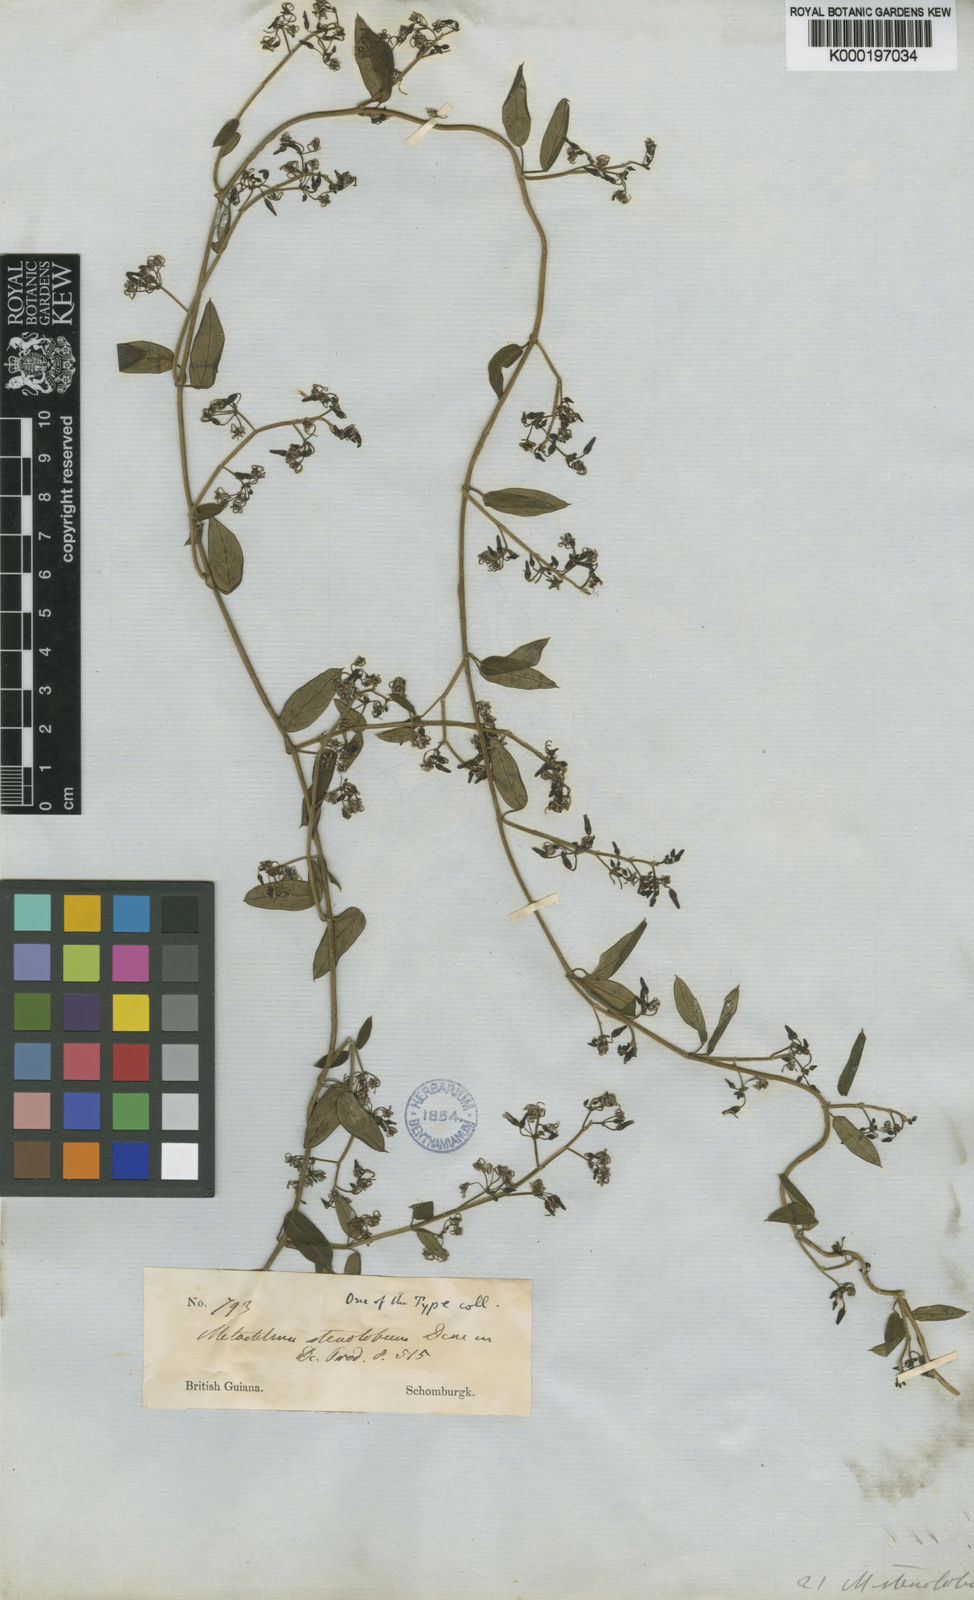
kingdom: Plantae
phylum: Tracheophyta
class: Magnoliopsida
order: Gentianales
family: Apocynaceae
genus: Tassadia
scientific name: Tassadia
